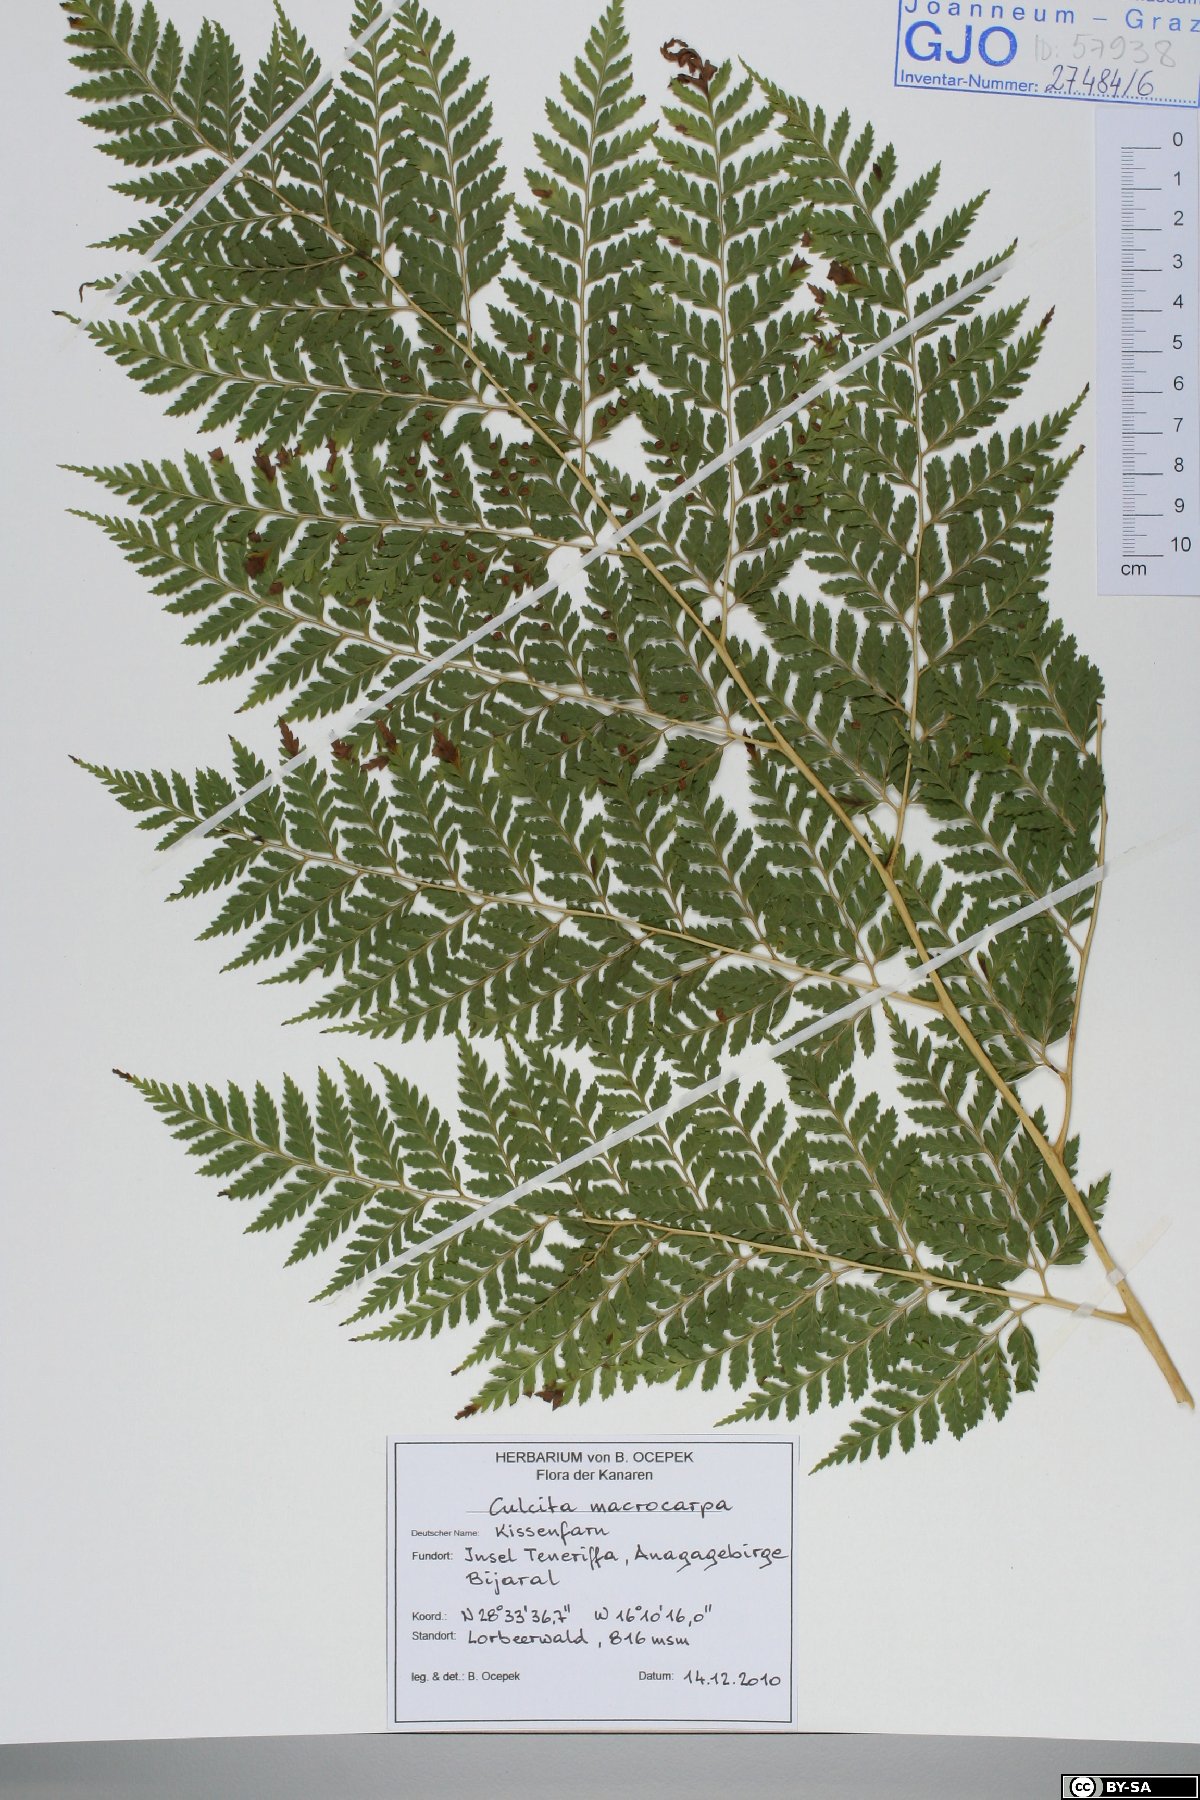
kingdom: Plantae
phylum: Tracheophyta
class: Polypodiopsida
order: Cyatheales
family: Culcitaceae
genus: Culcita
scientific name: Culcita macrocarpa
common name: Woolly tree fern
